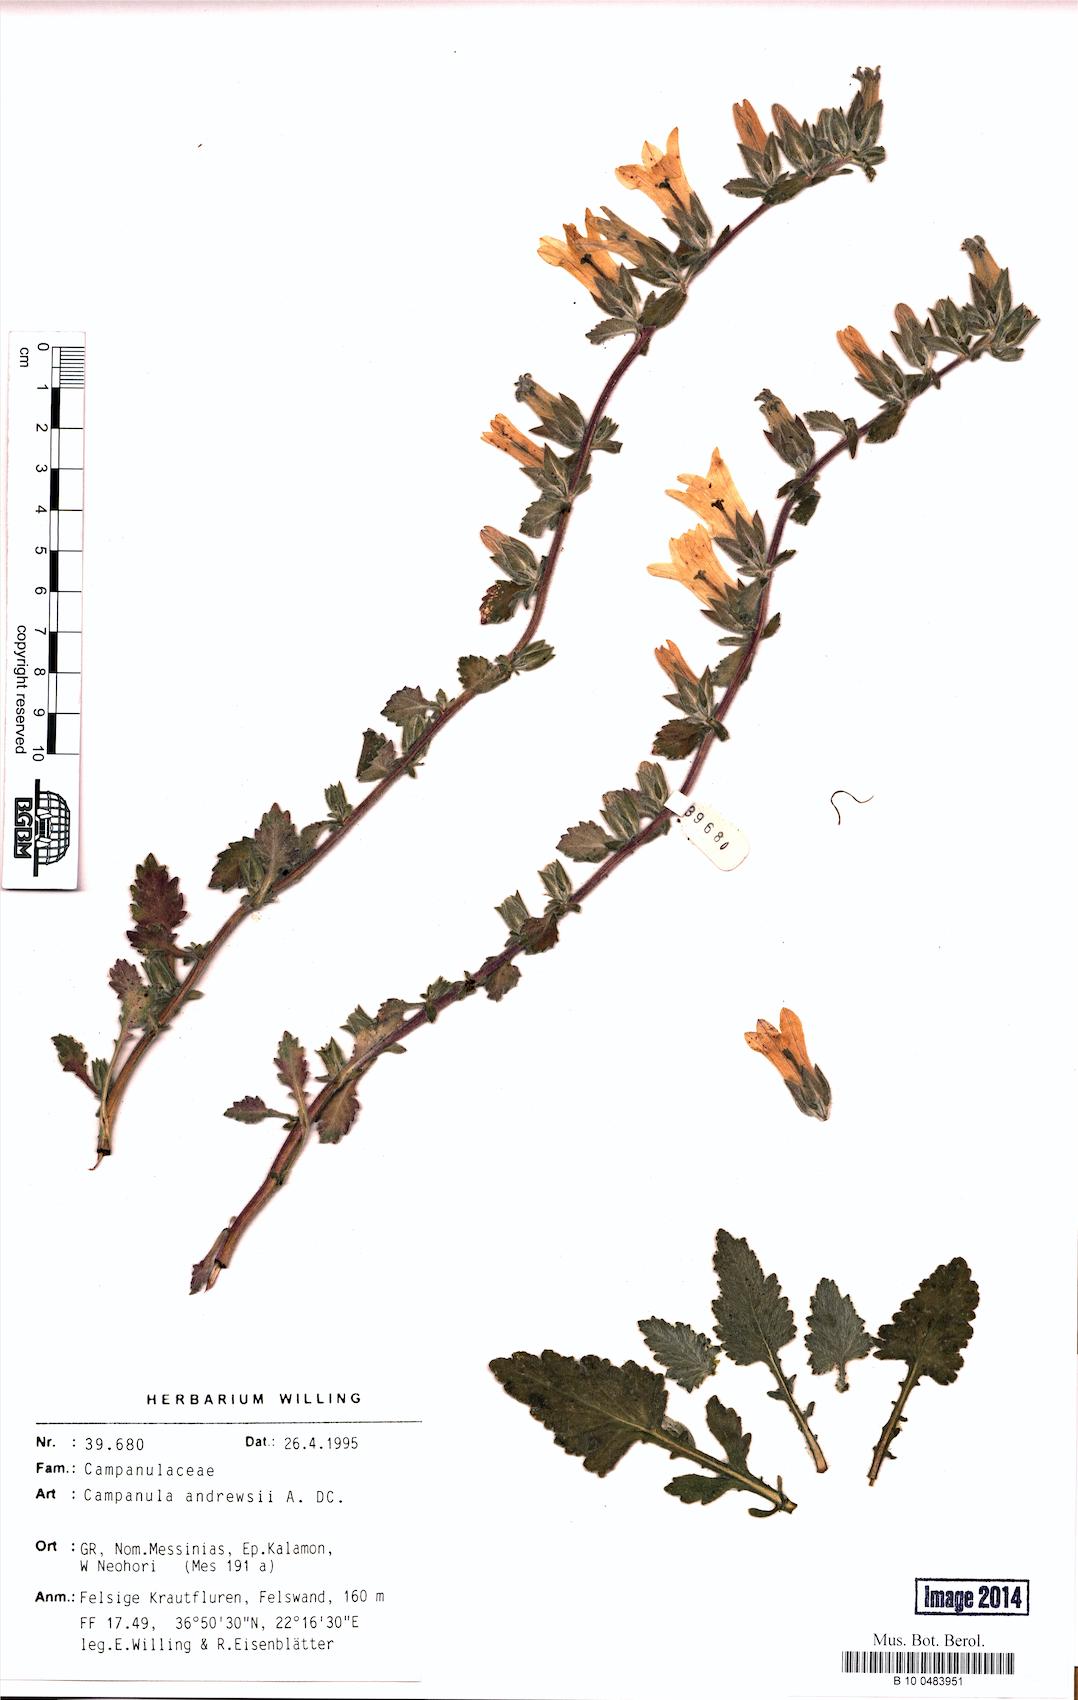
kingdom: Plantae
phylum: Tracheophyta
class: Magnoliopsida
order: Asterales
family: Campanulaceae
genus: Campanula
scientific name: Campanula andrewsii
